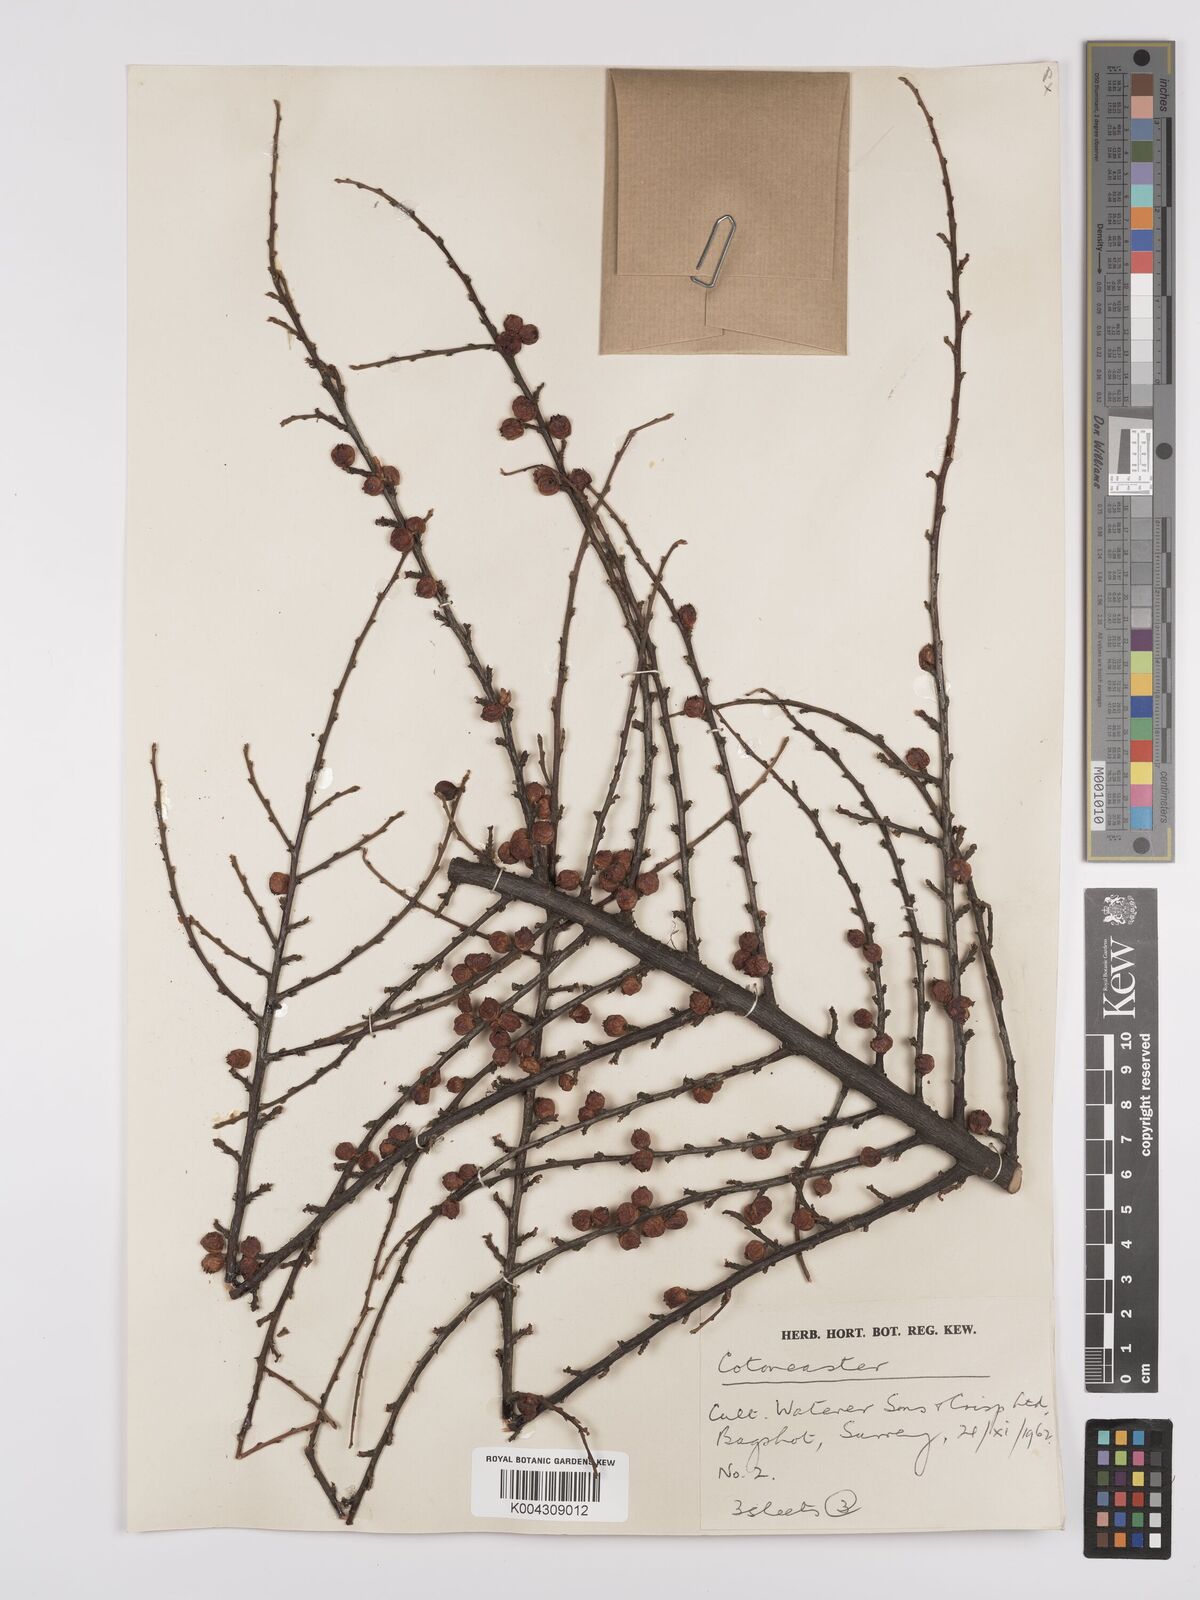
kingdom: Plantae
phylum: Tracheophyta
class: Magnoliopsida
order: Rosales
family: Rosaceae
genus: Cotoneaster
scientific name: Cotoneaster
